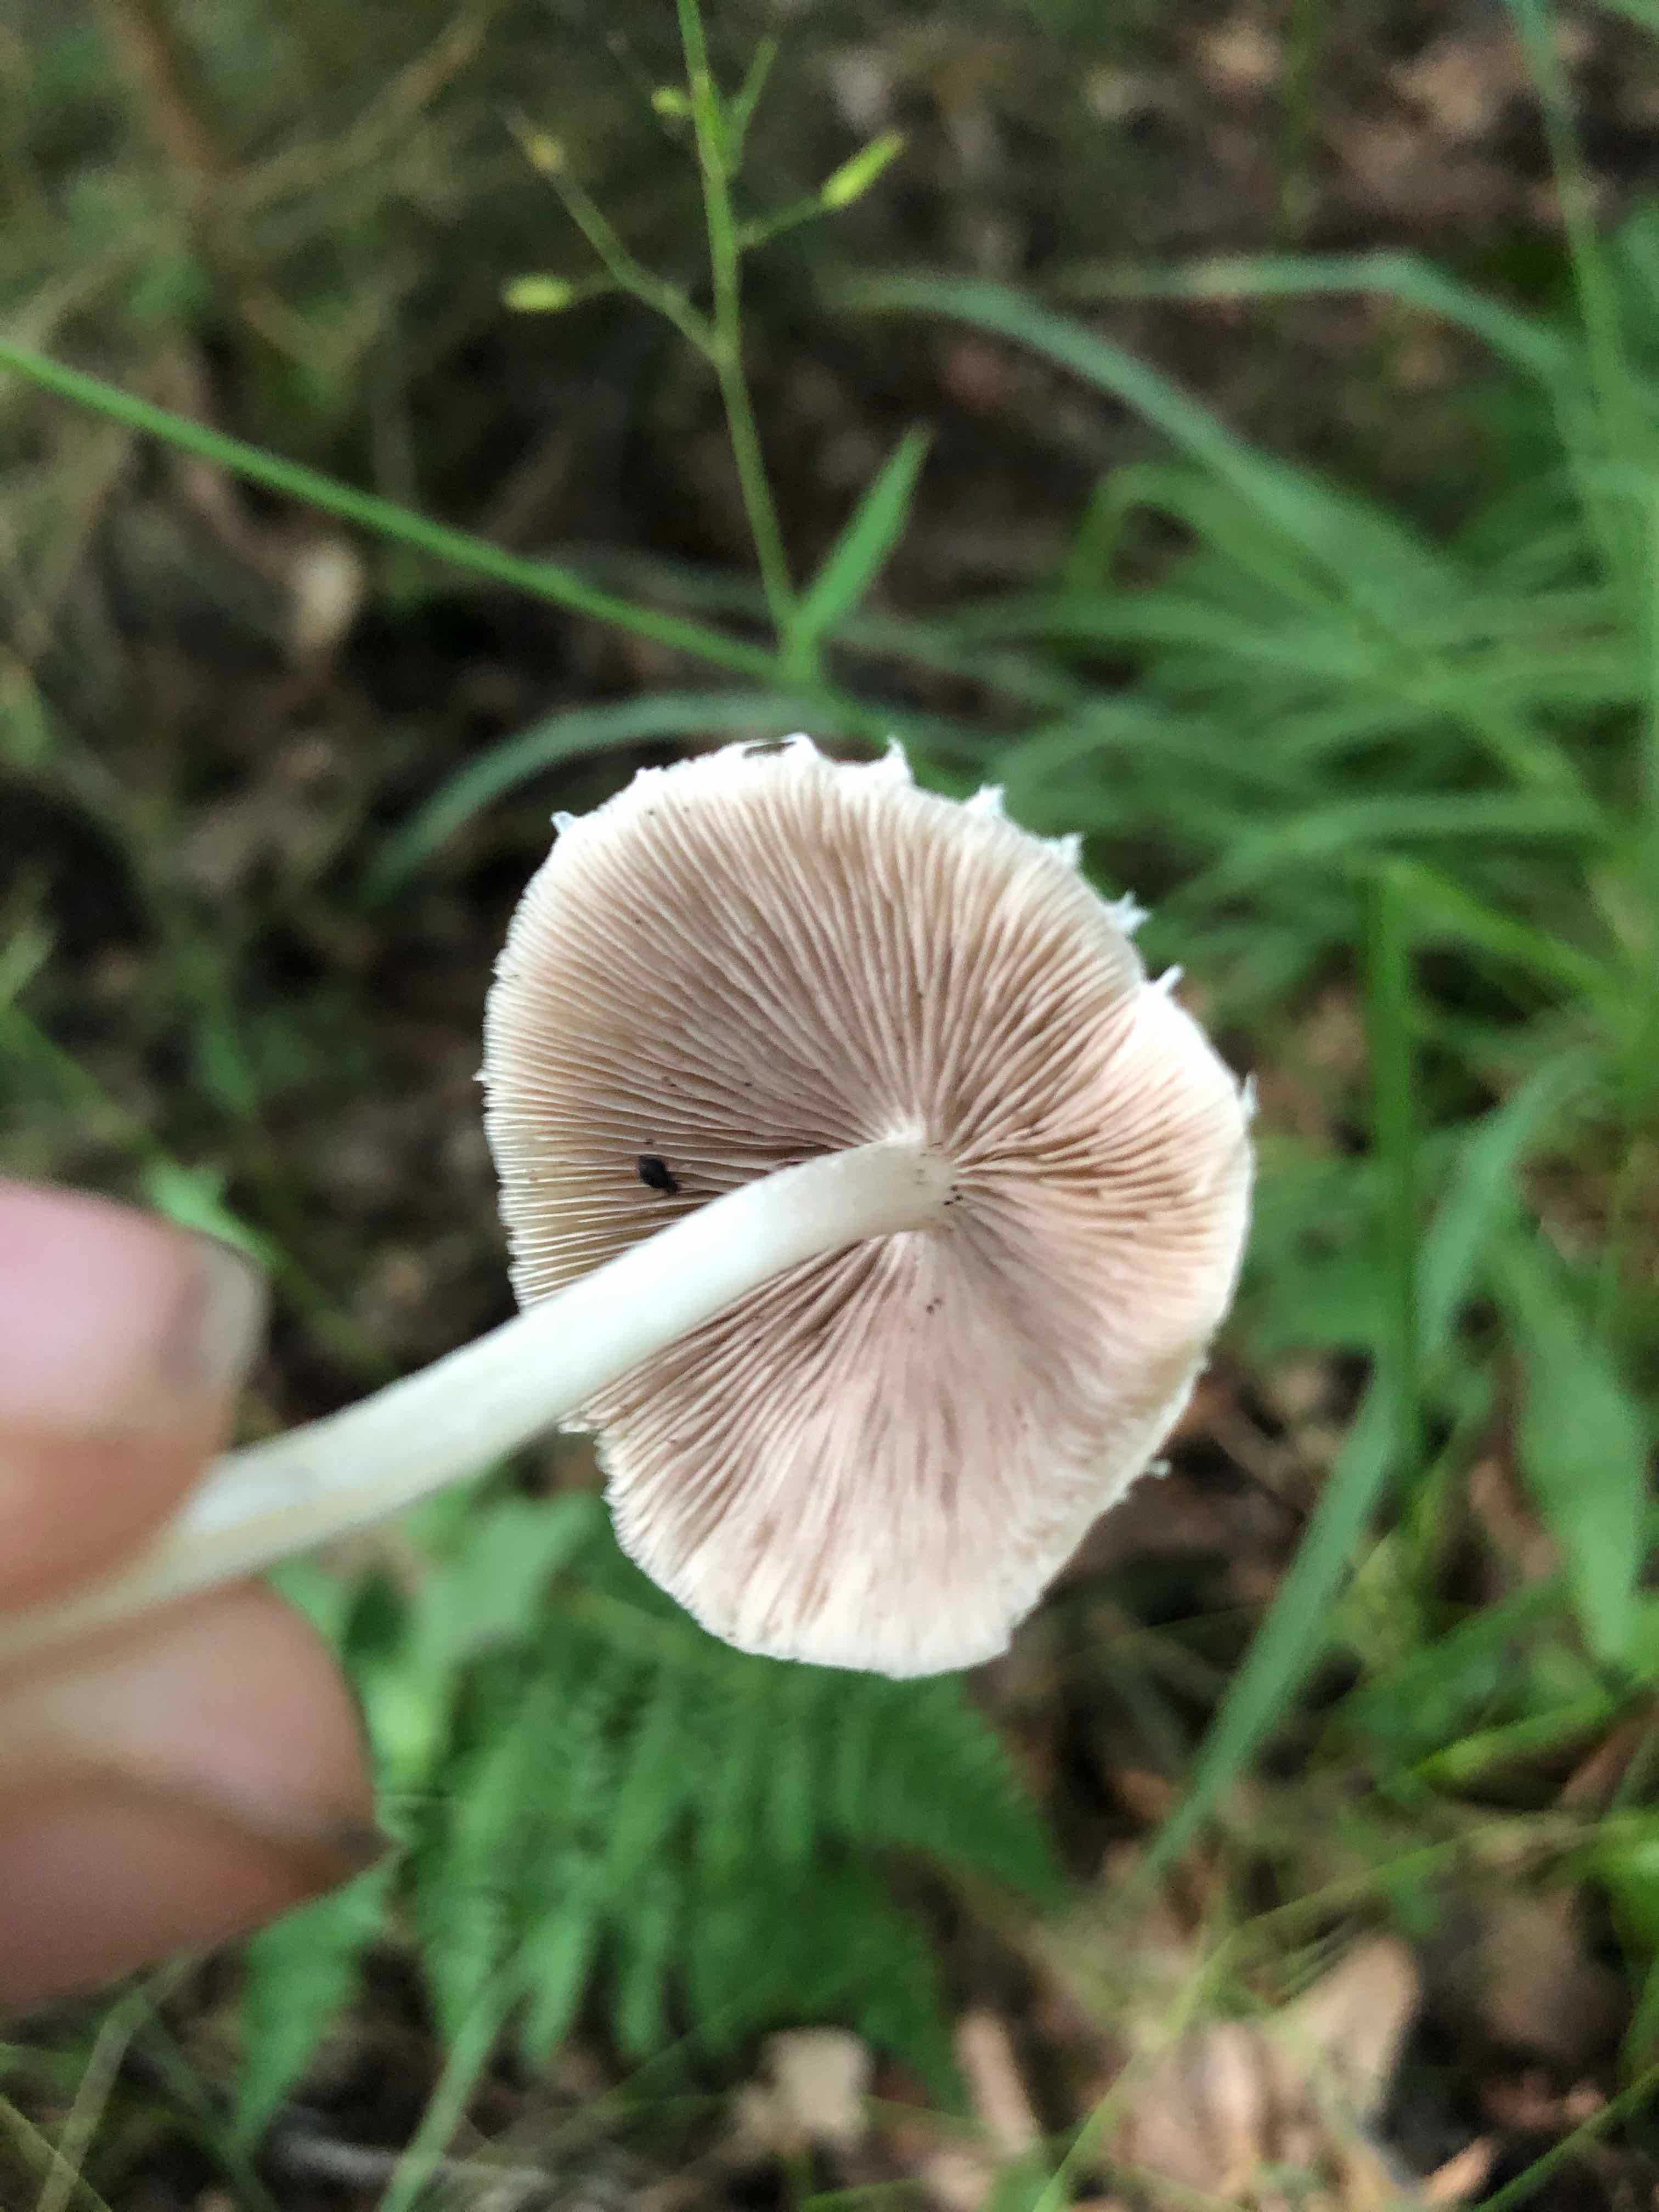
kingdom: Fungi
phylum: Basidiomycota
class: Agaricomycetes
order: Agaricales
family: Psathyrellaceae
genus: Candolleomyces
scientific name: Candolleomyces candolleanus
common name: Candolles mørkhat
